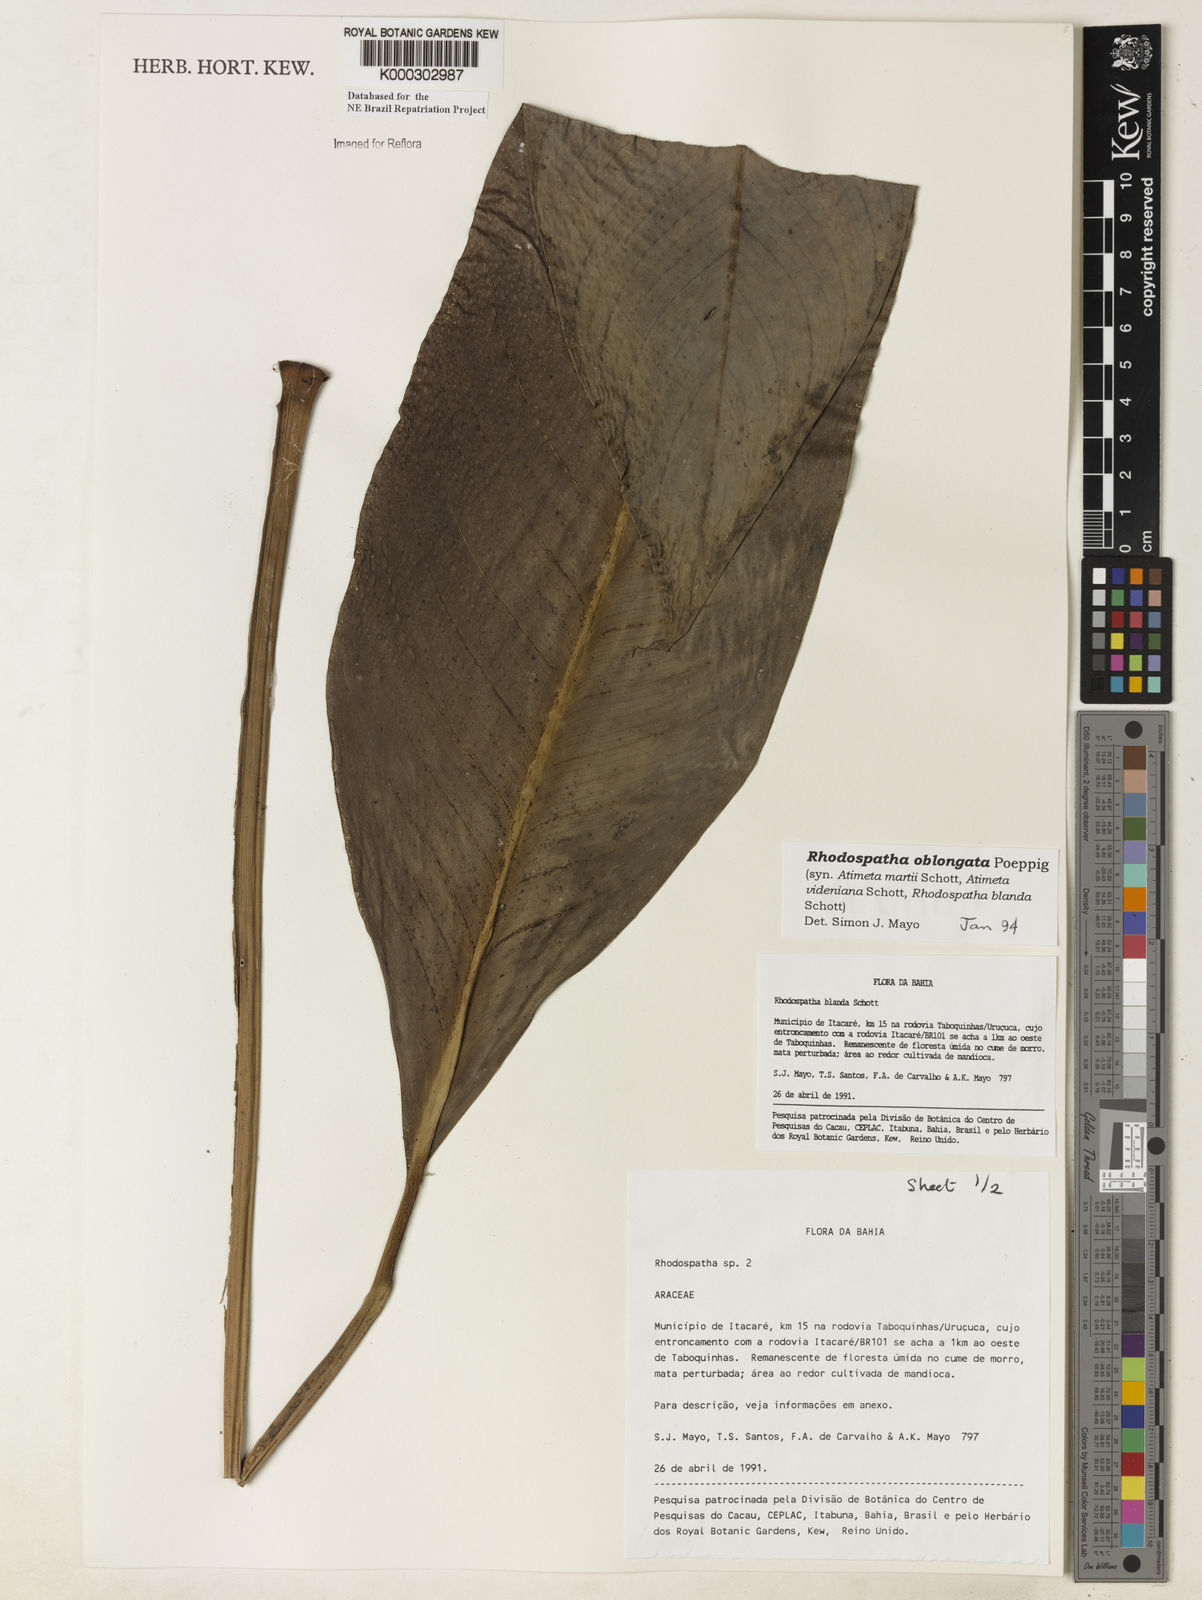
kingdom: Plantae
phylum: Tracheophyta
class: Liliopsida
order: Alismatales
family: Araceae
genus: Rhodospatha
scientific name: Rhodospatha oblongata
